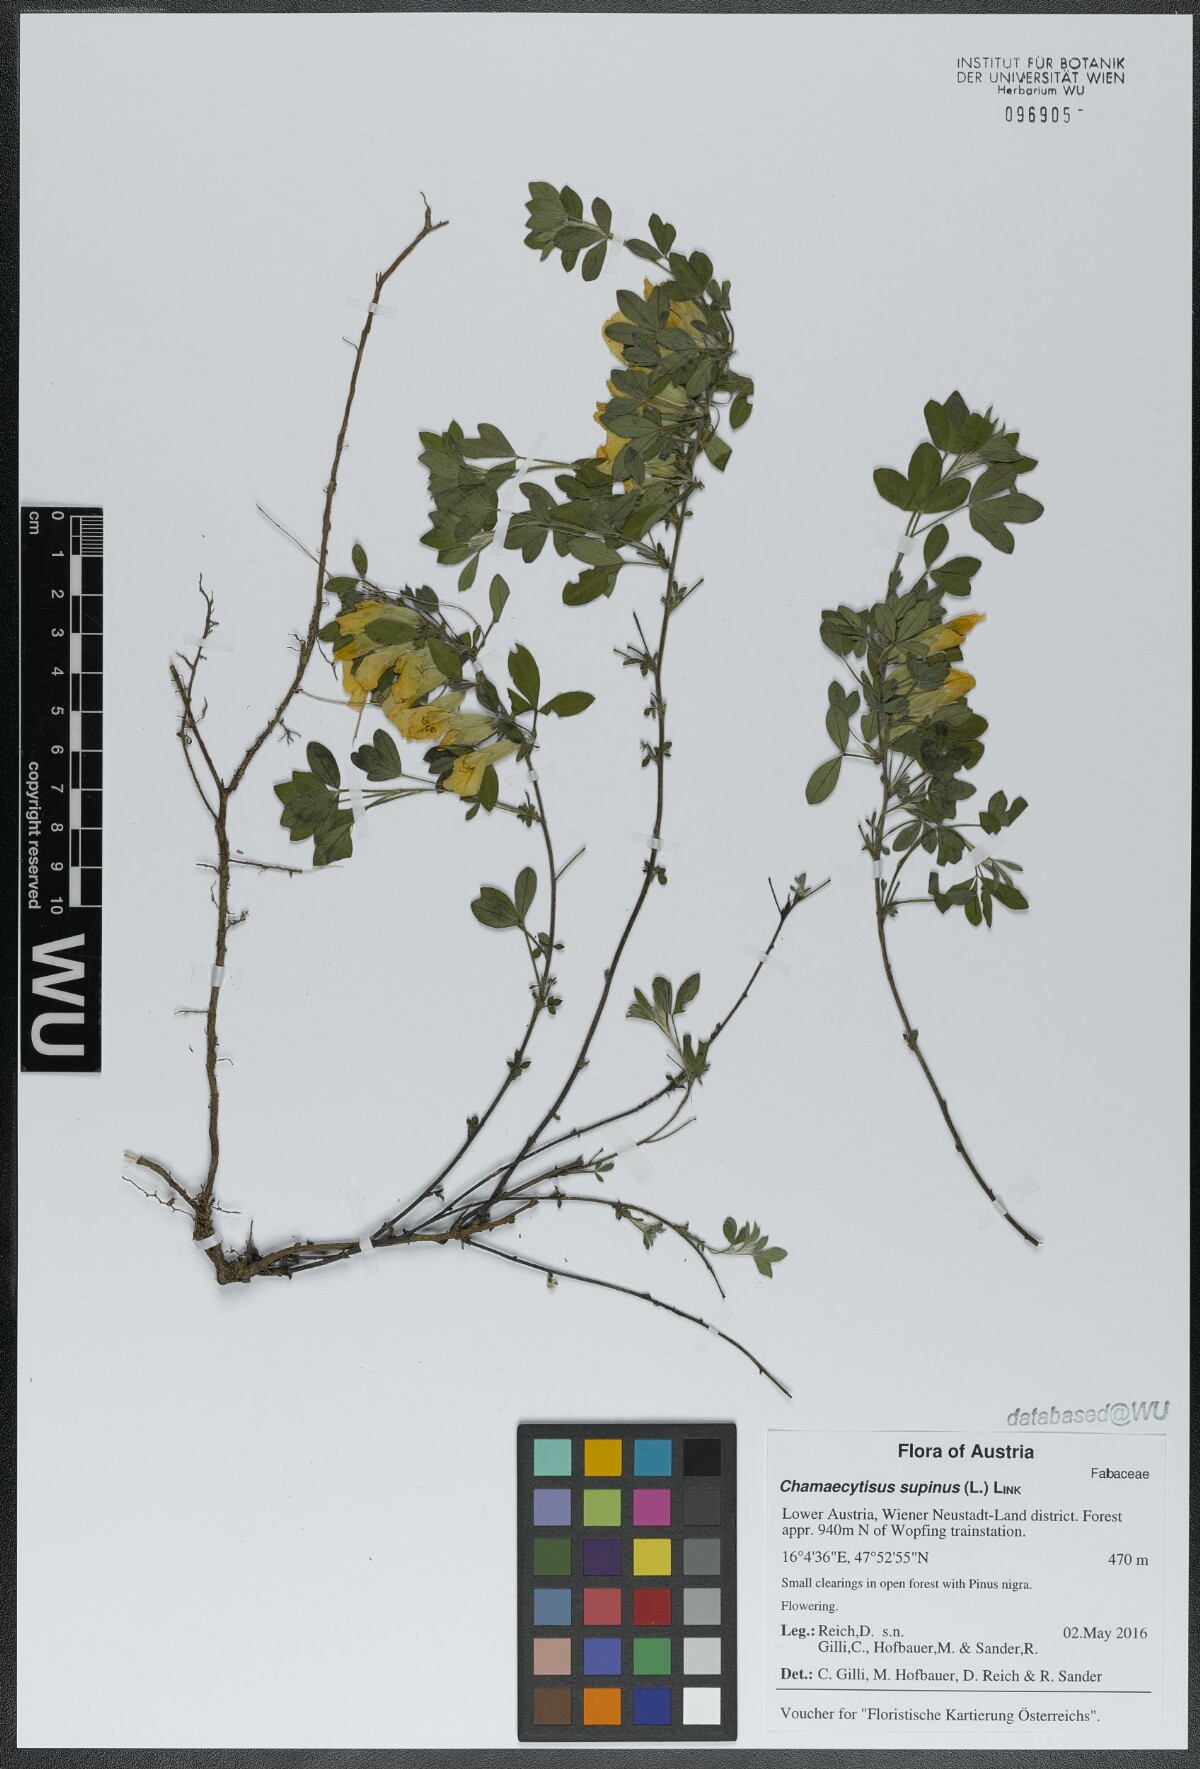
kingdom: Plantae
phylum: Tracheophyta
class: Magnoliopsida
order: Fabales
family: Fabaceae
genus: Chamaecytisus
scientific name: Chamaecytisus supinus
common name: Clustered broom
